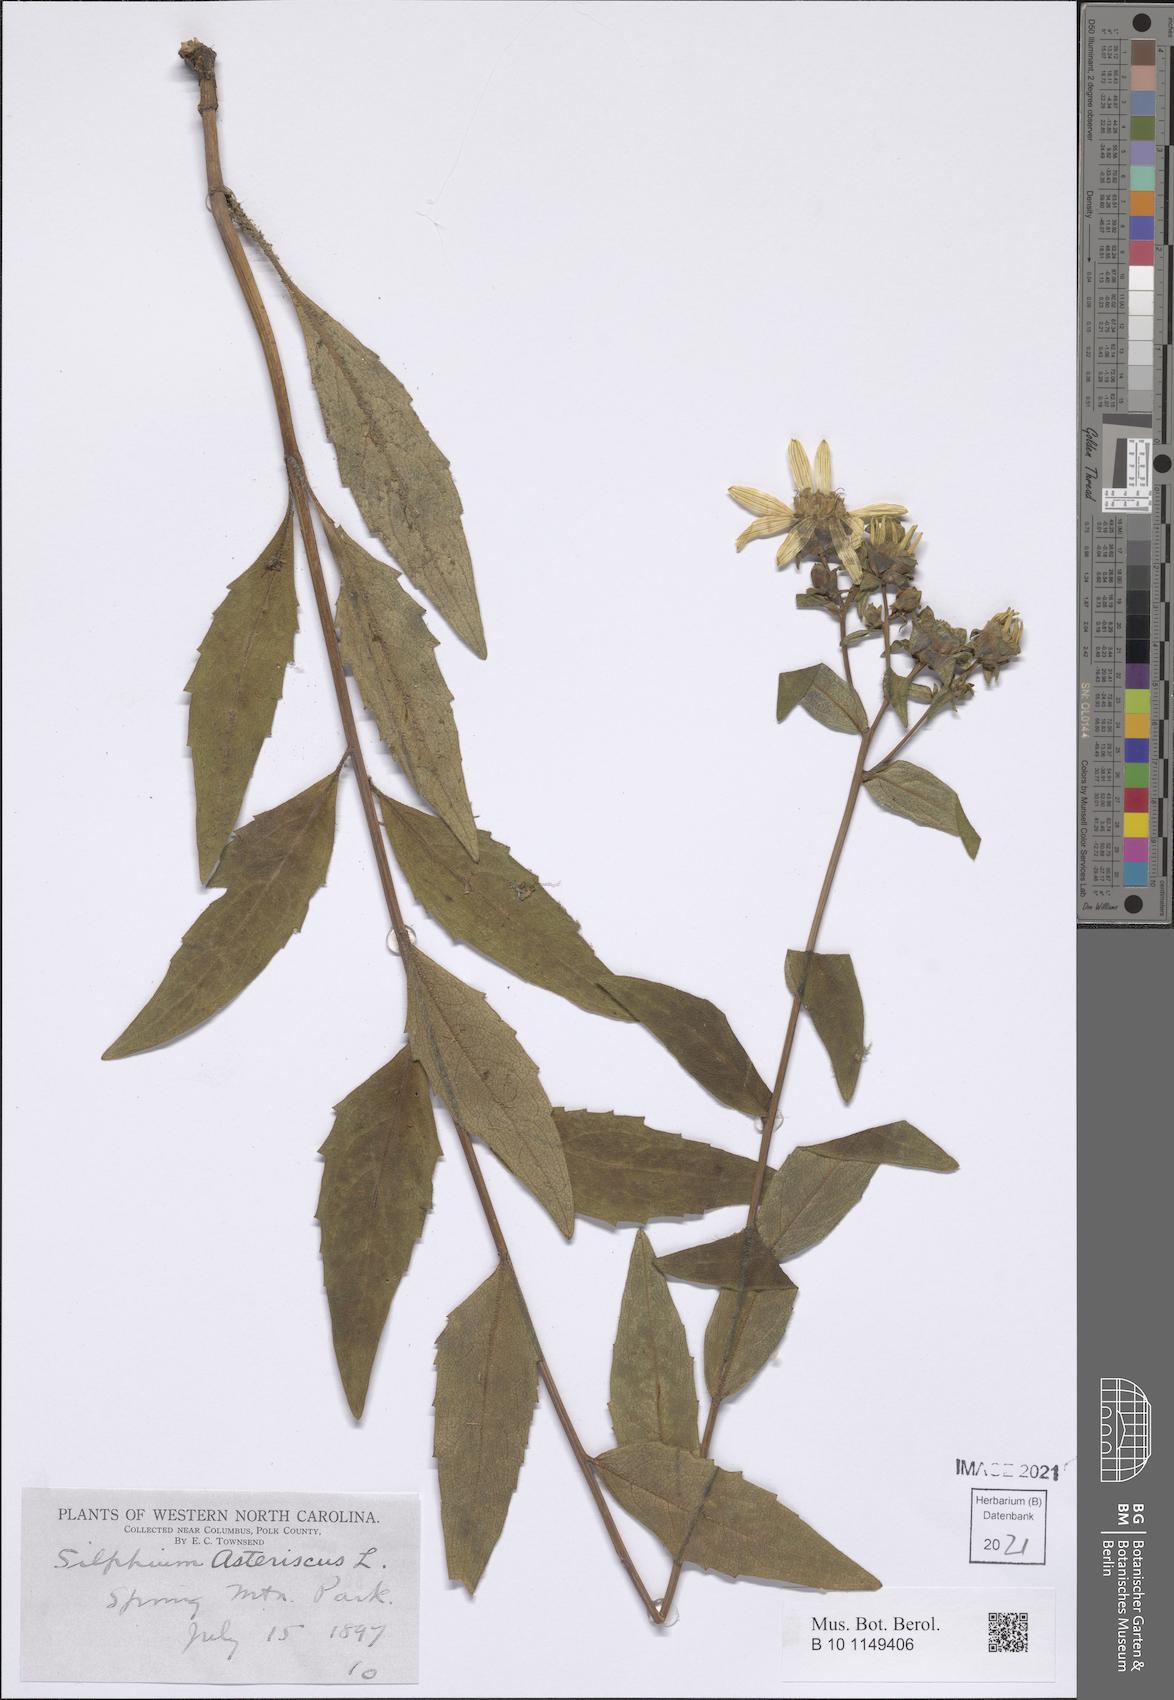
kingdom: Plantae
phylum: Tracheophyta
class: Magnoliopsida
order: Asterales
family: Asteraceae
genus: Silphium
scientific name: Silphium asteriscus
